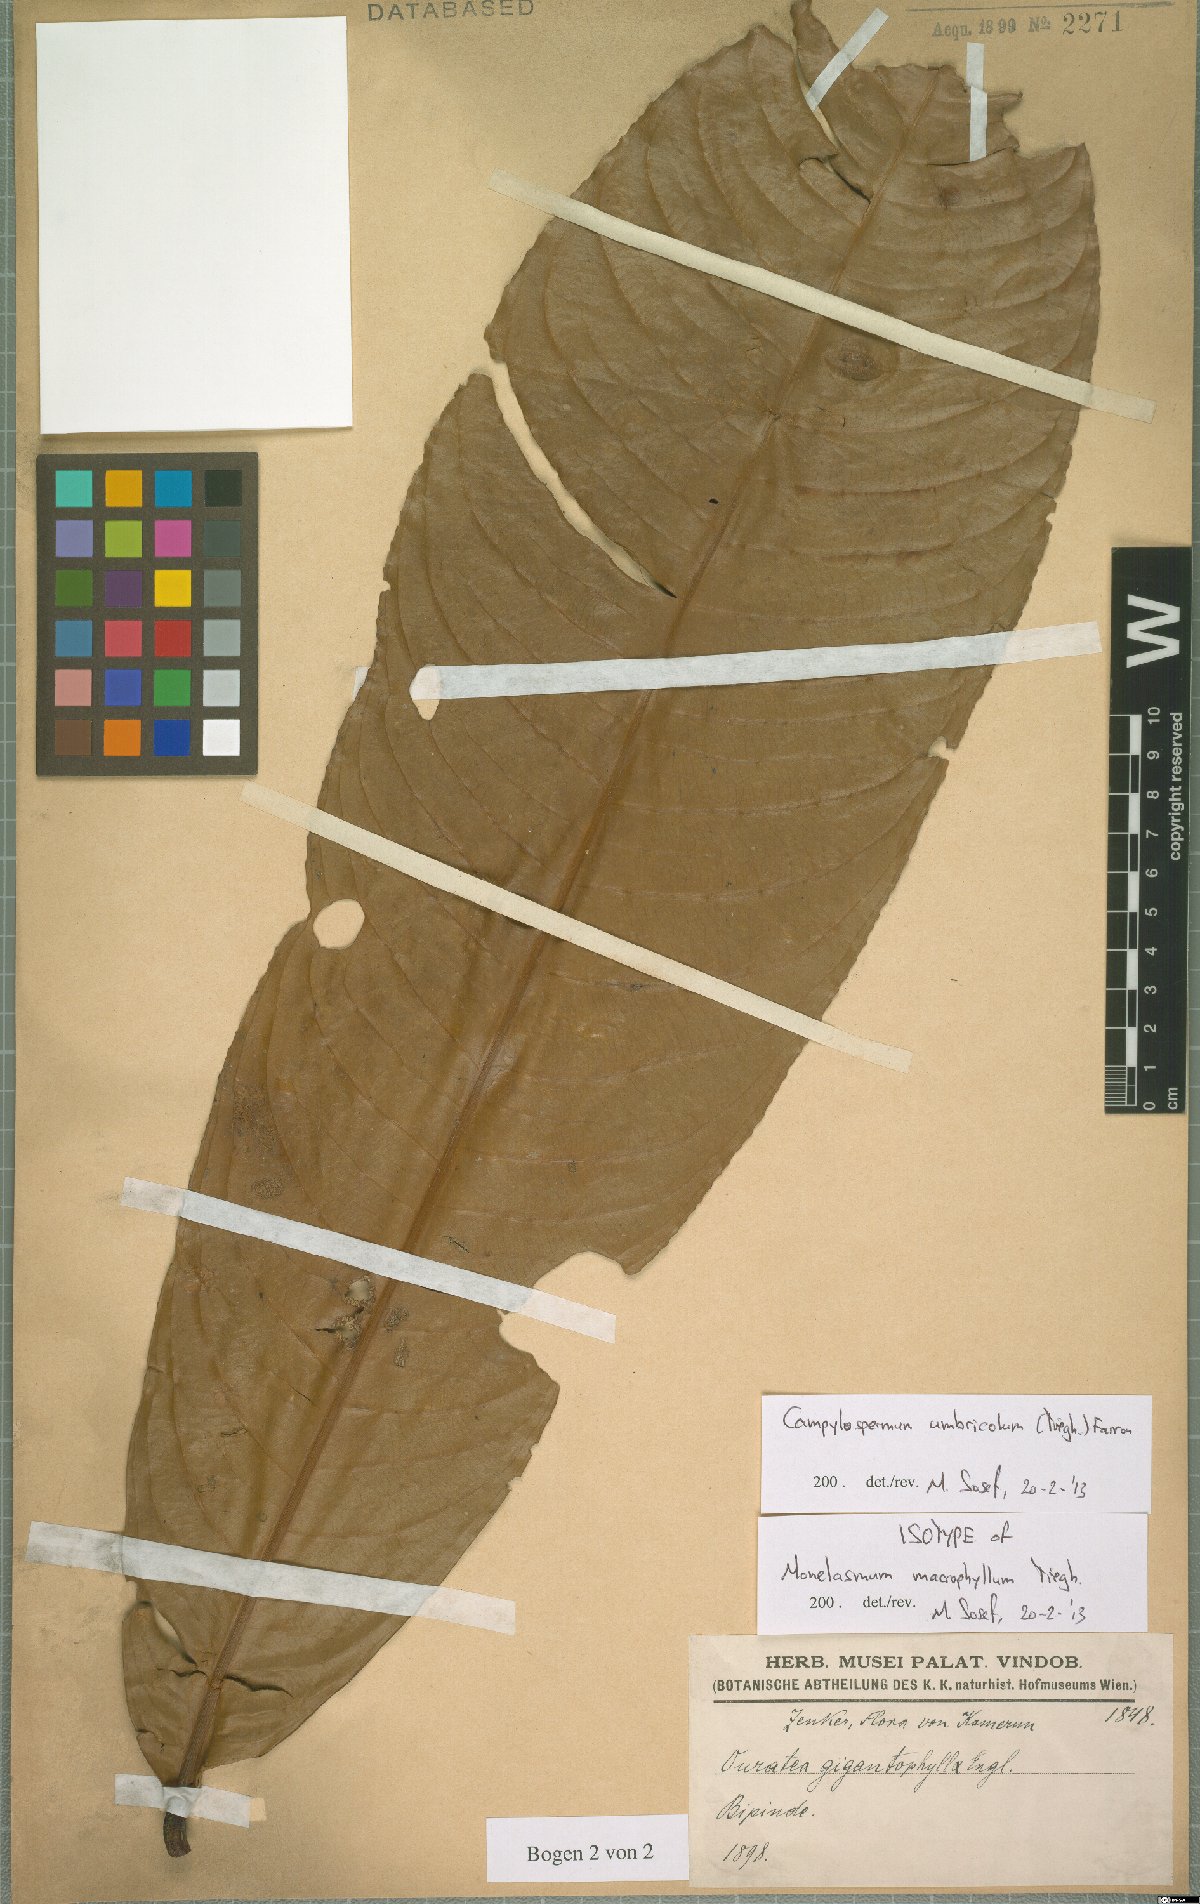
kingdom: Plantae
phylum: Tracheophyta
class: Magnoliopsida
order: Malpighiales
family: Ochnaceae
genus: Campylospermum
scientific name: Campylospermum umbricola
